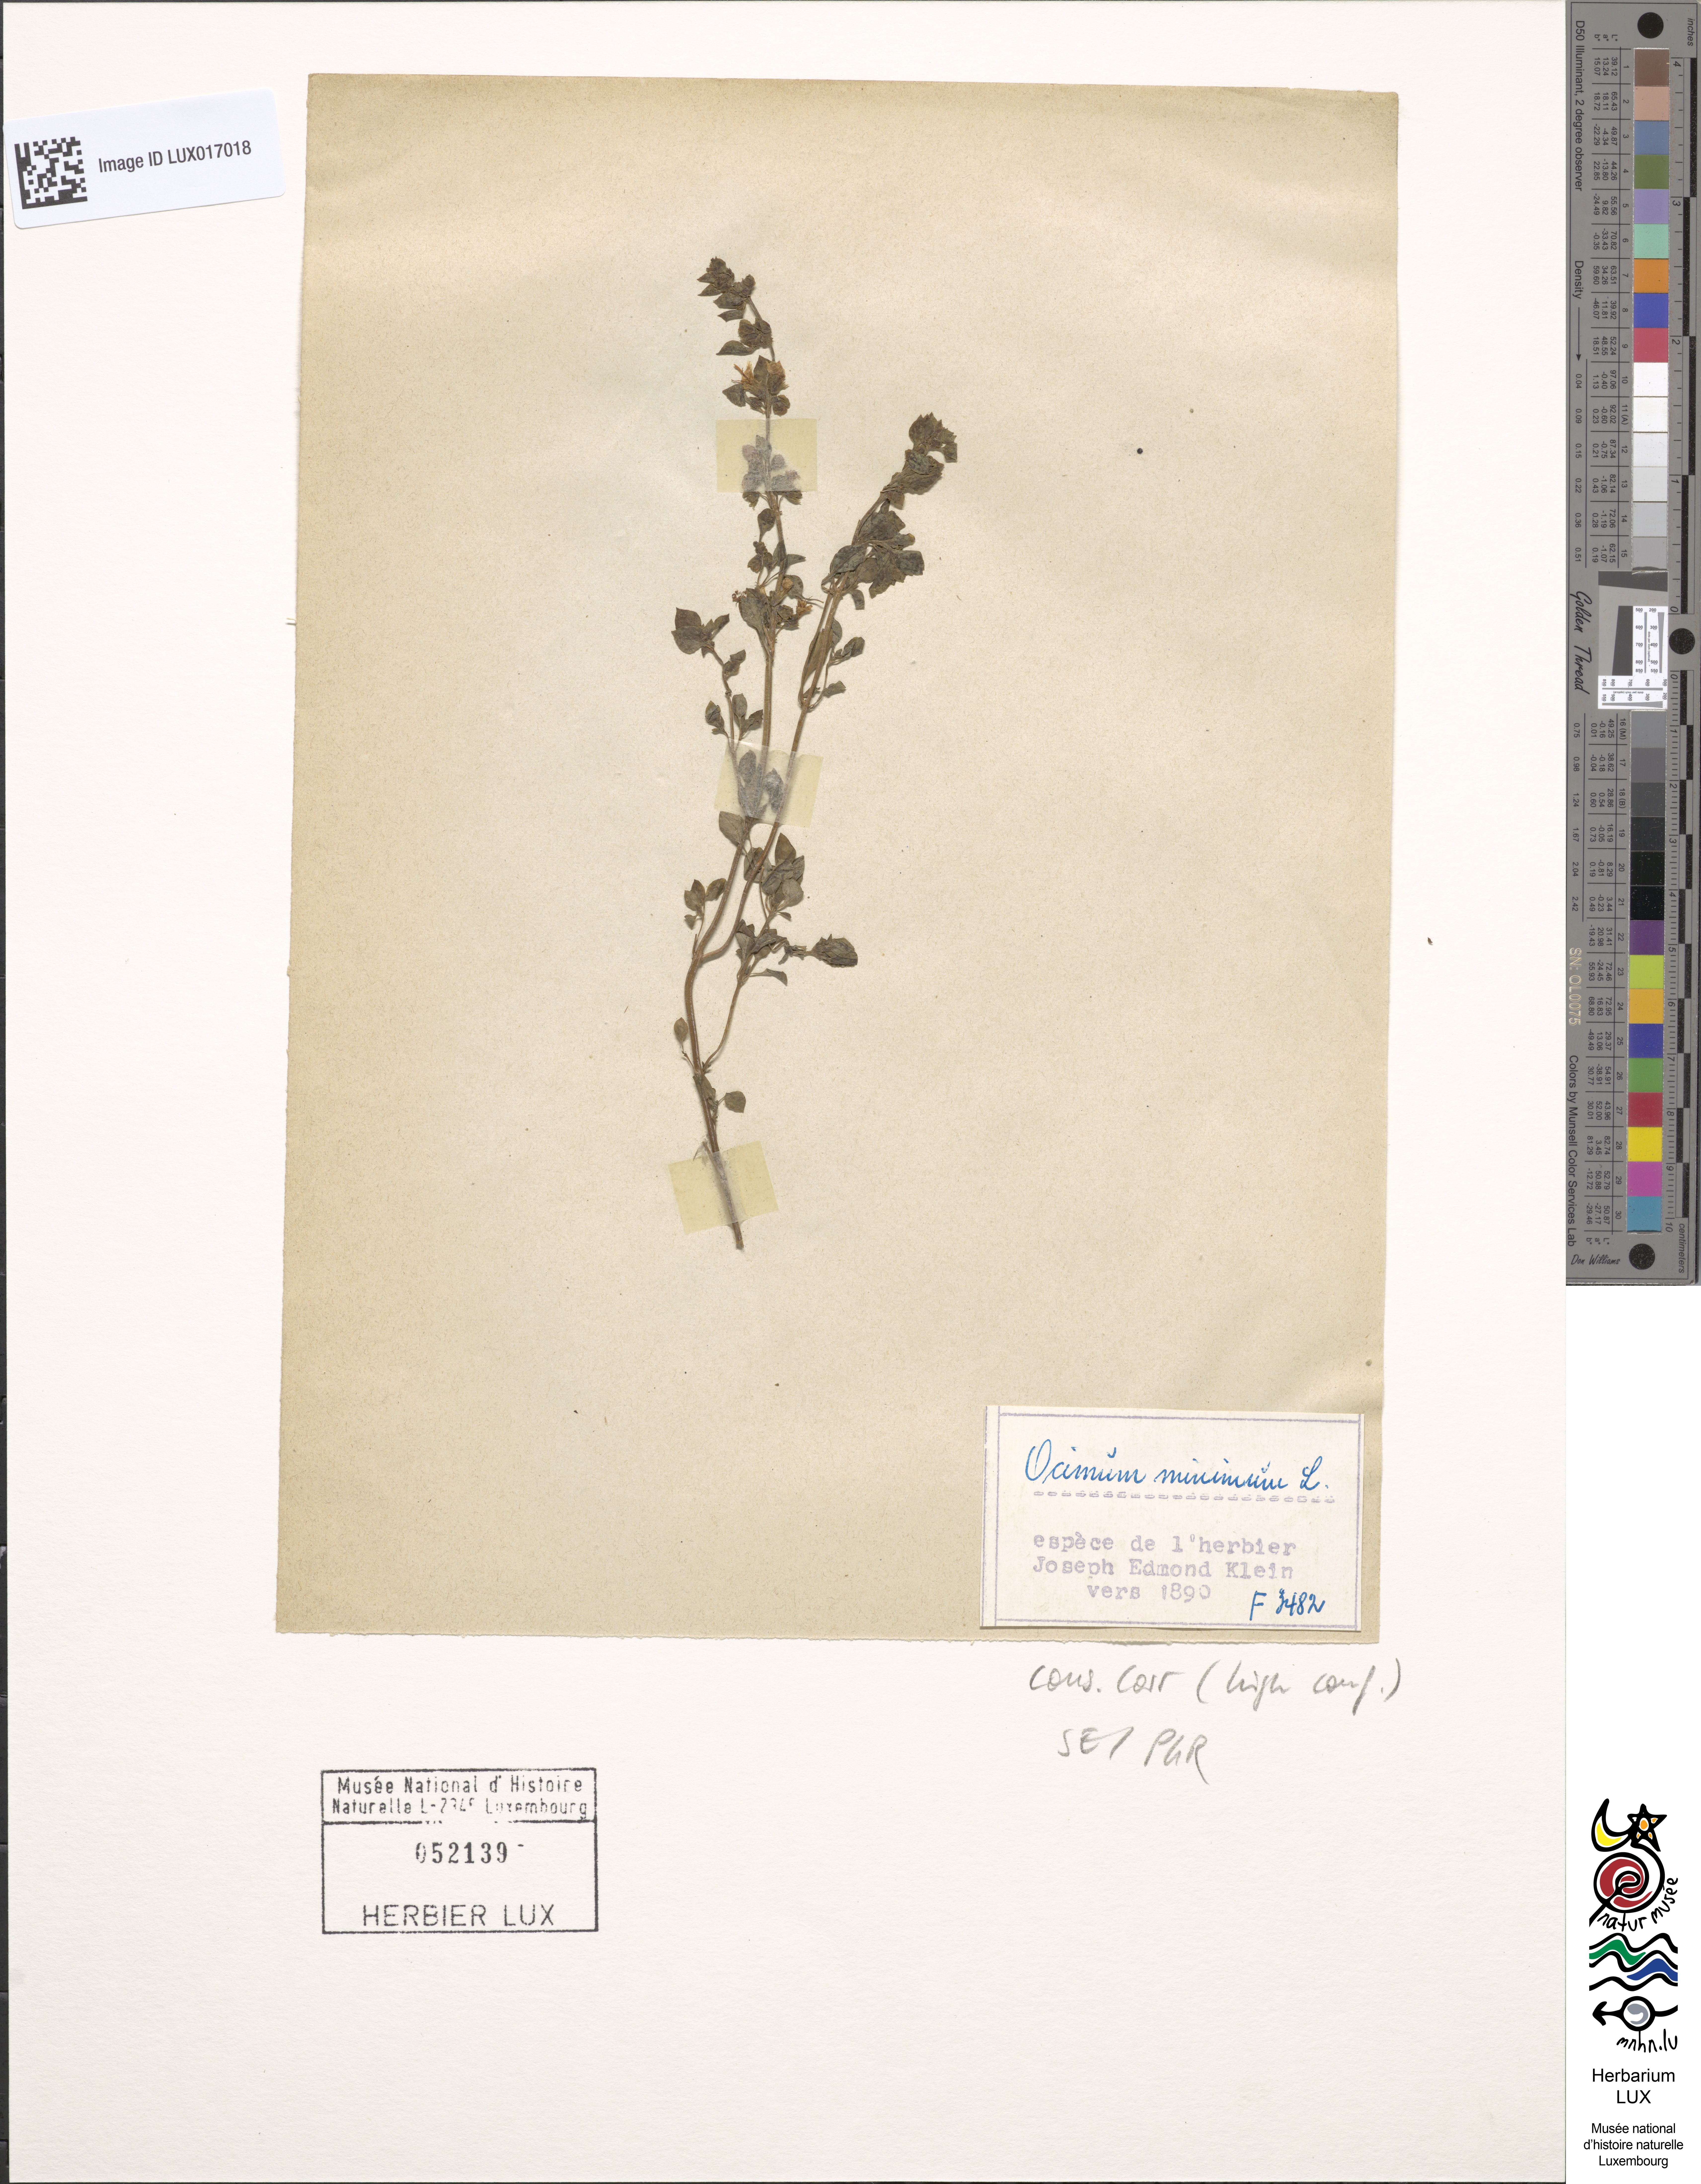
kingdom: Plantae
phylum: Tracheophyta
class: Magnoliopsida
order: Lamiales
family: Lamiaceae
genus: Ocimum
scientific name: Ocimum basilicum
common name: Sweet basil
